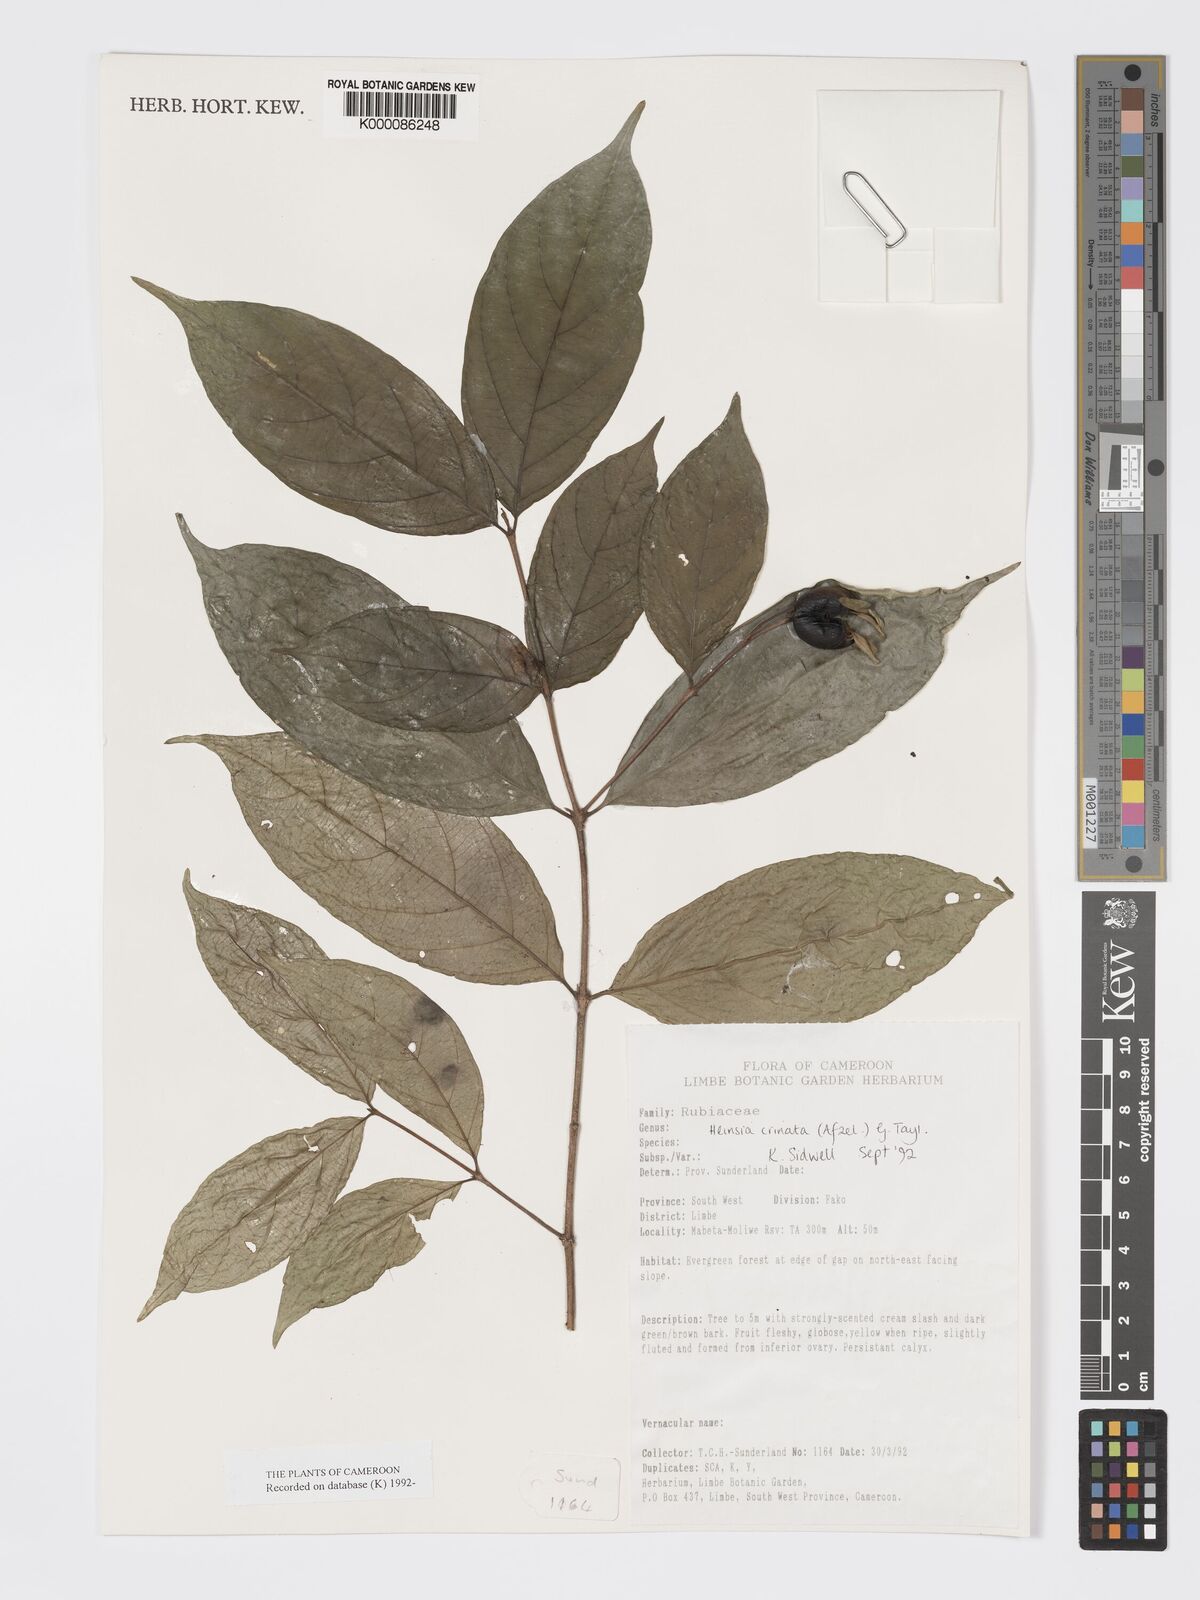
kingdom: Plantae
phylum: Tracheophyta
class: Magnoliopsida
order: Gentianales
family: Rubiaceae
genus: Heinsia
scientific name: Heinsia crinita
